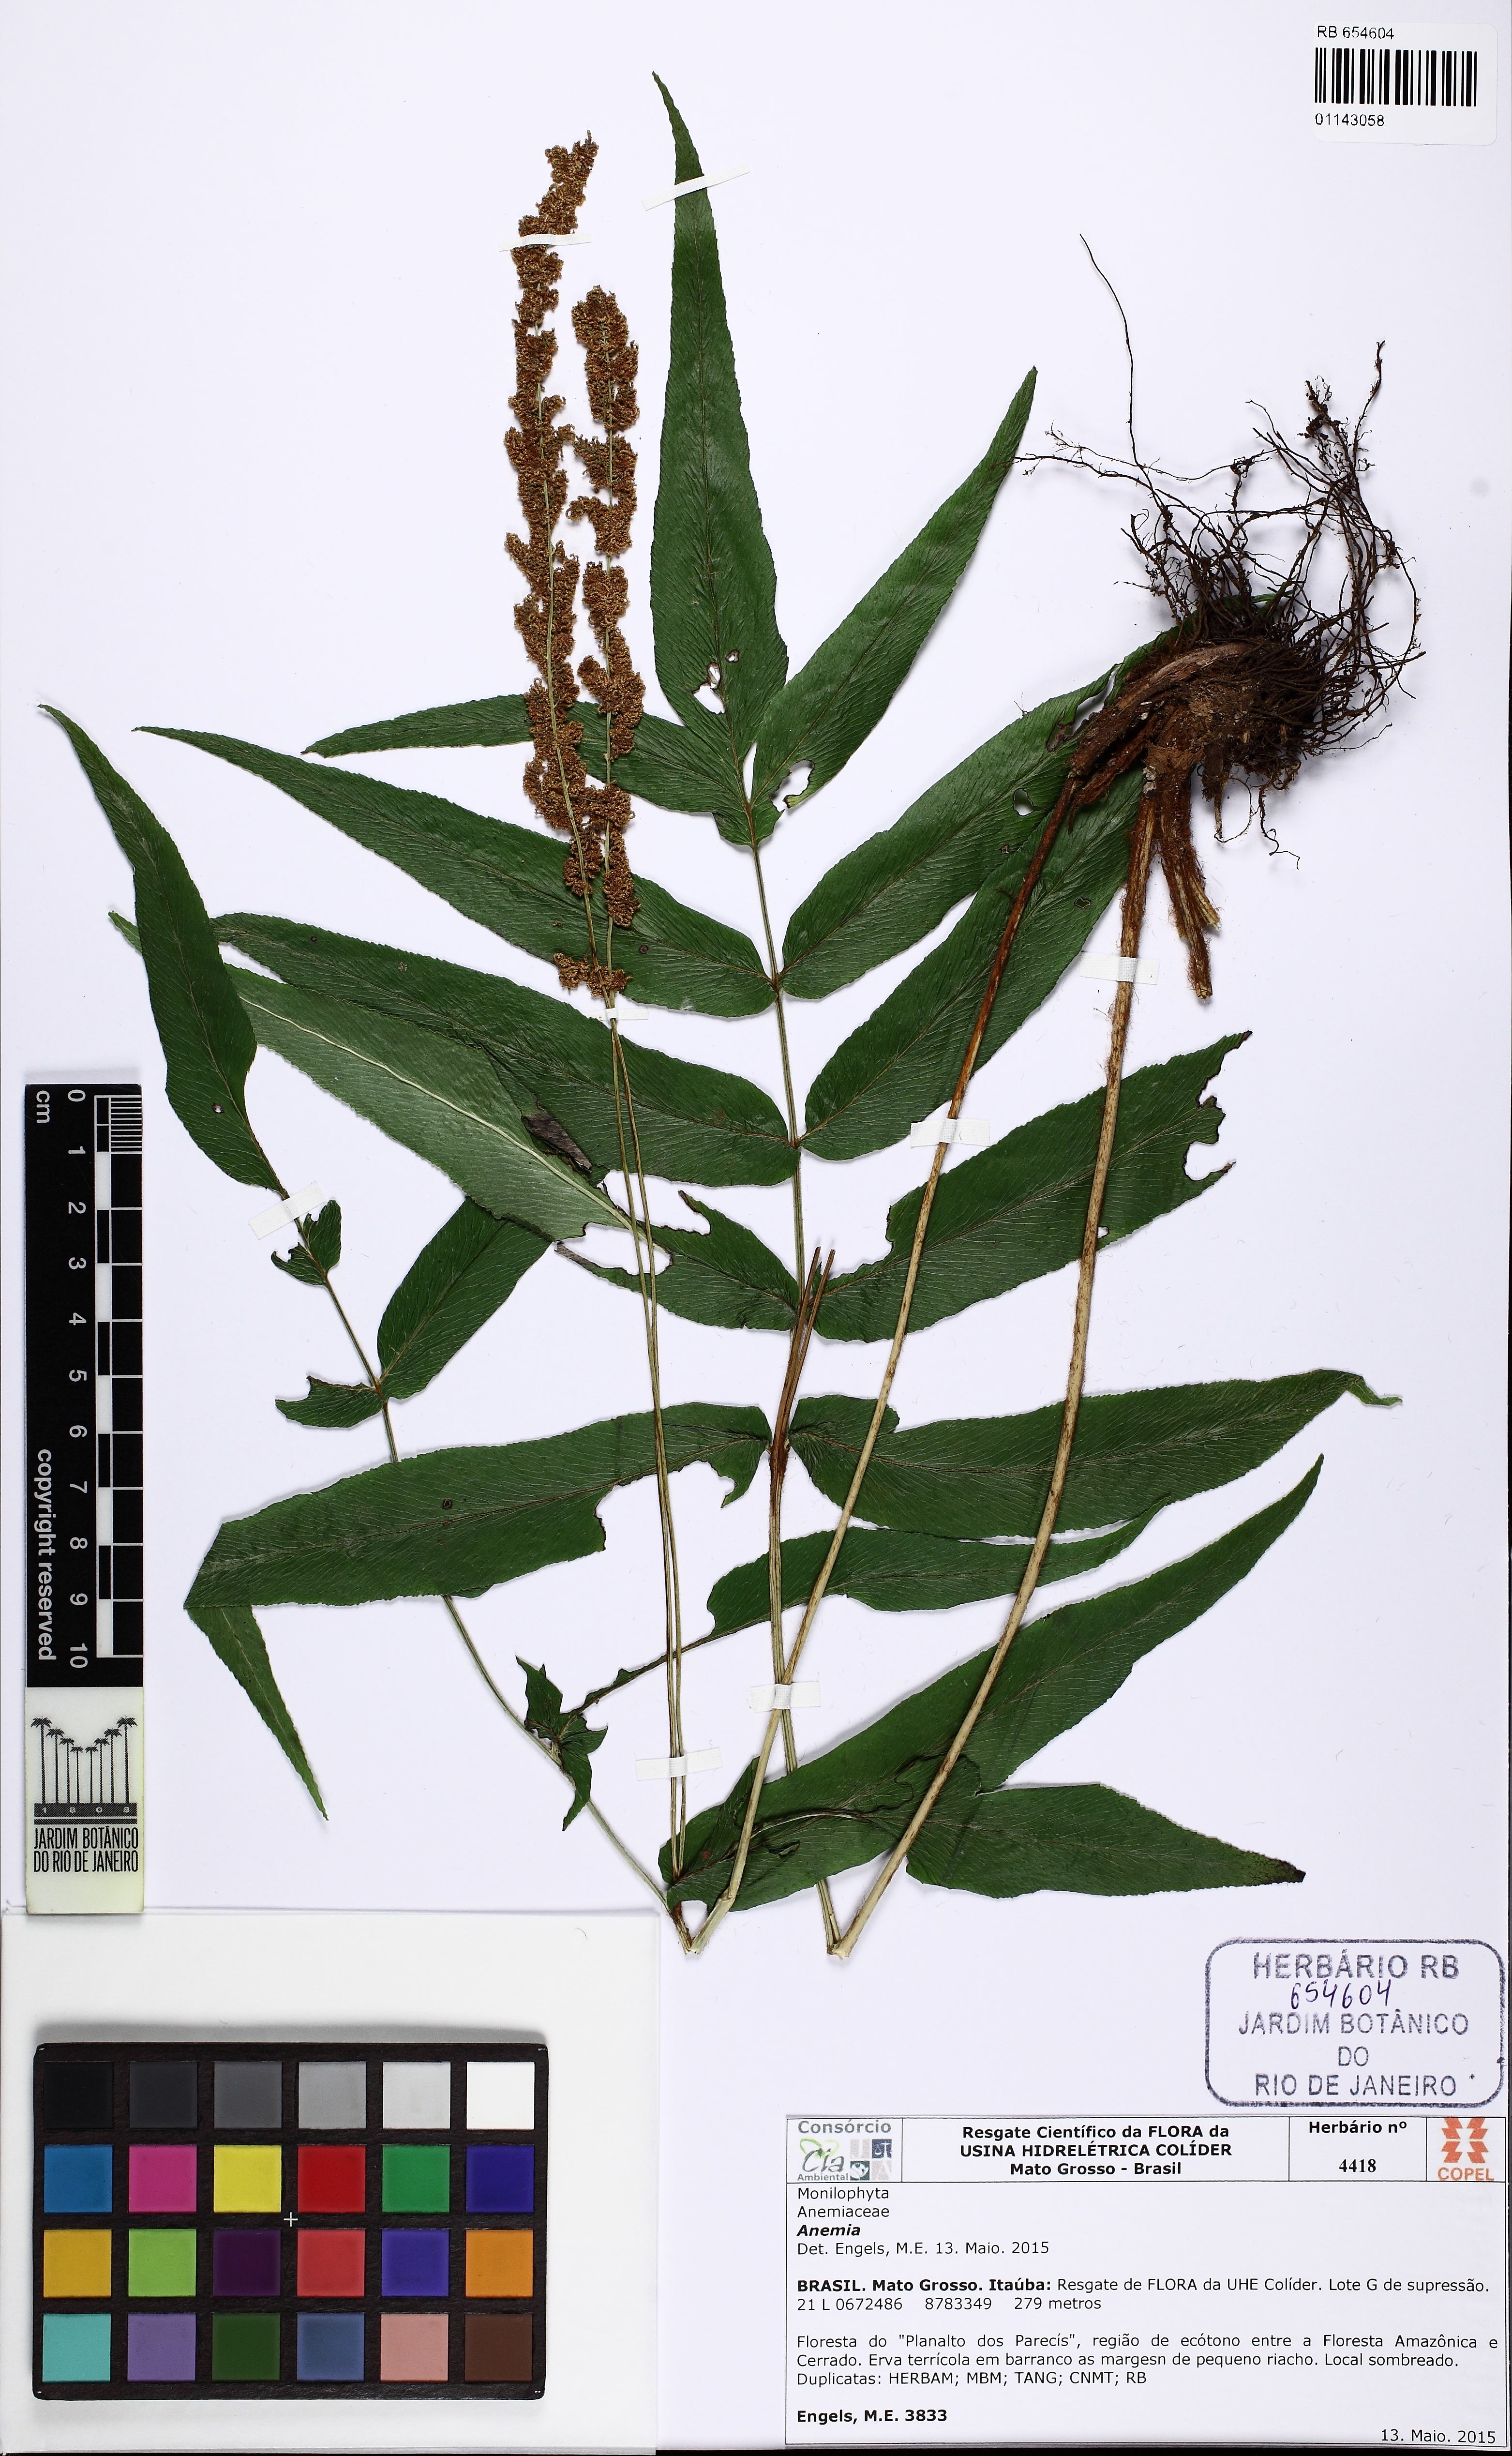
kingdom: Plantae
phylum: Tracheophyta
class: Polypodiopsida
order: Schizaeales
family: Anemiaceae
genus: Anemia
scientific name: Anemia phyllitidis
